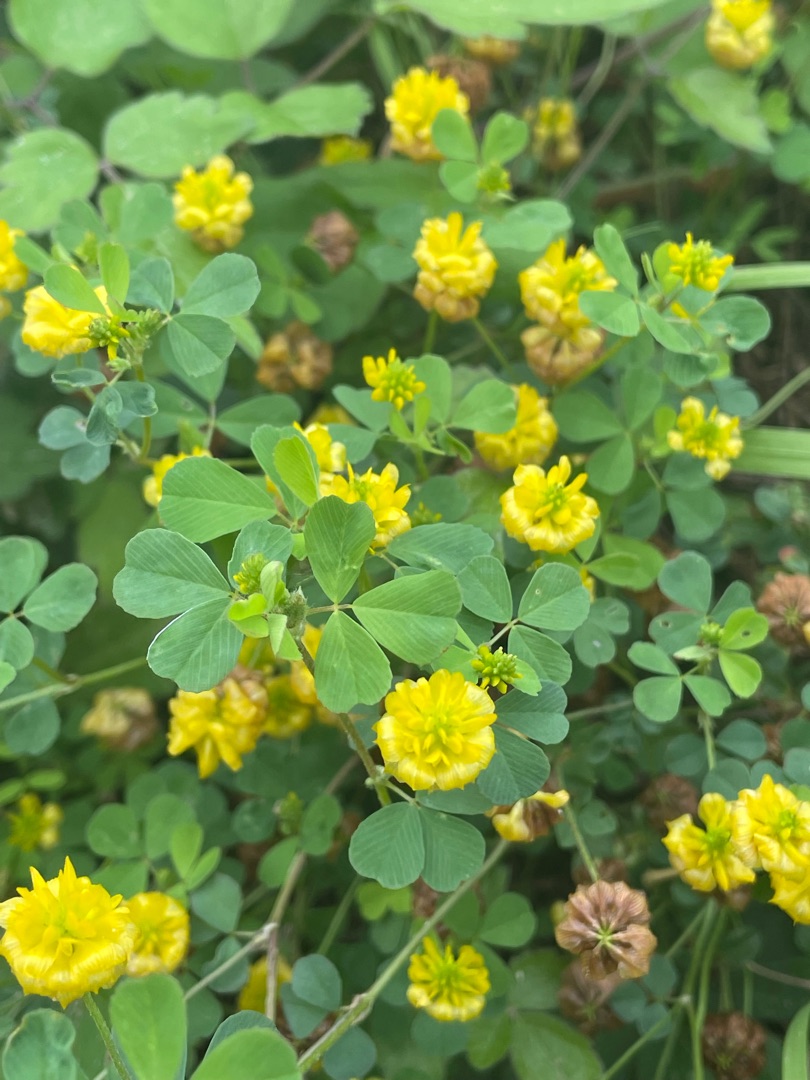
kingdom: Plantae
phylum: Tracheophyta
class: Magnoliopsida
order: Fabales
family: Fabaceae
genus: Trifolium
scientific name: Trifolium campestre
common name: Gul kløver
